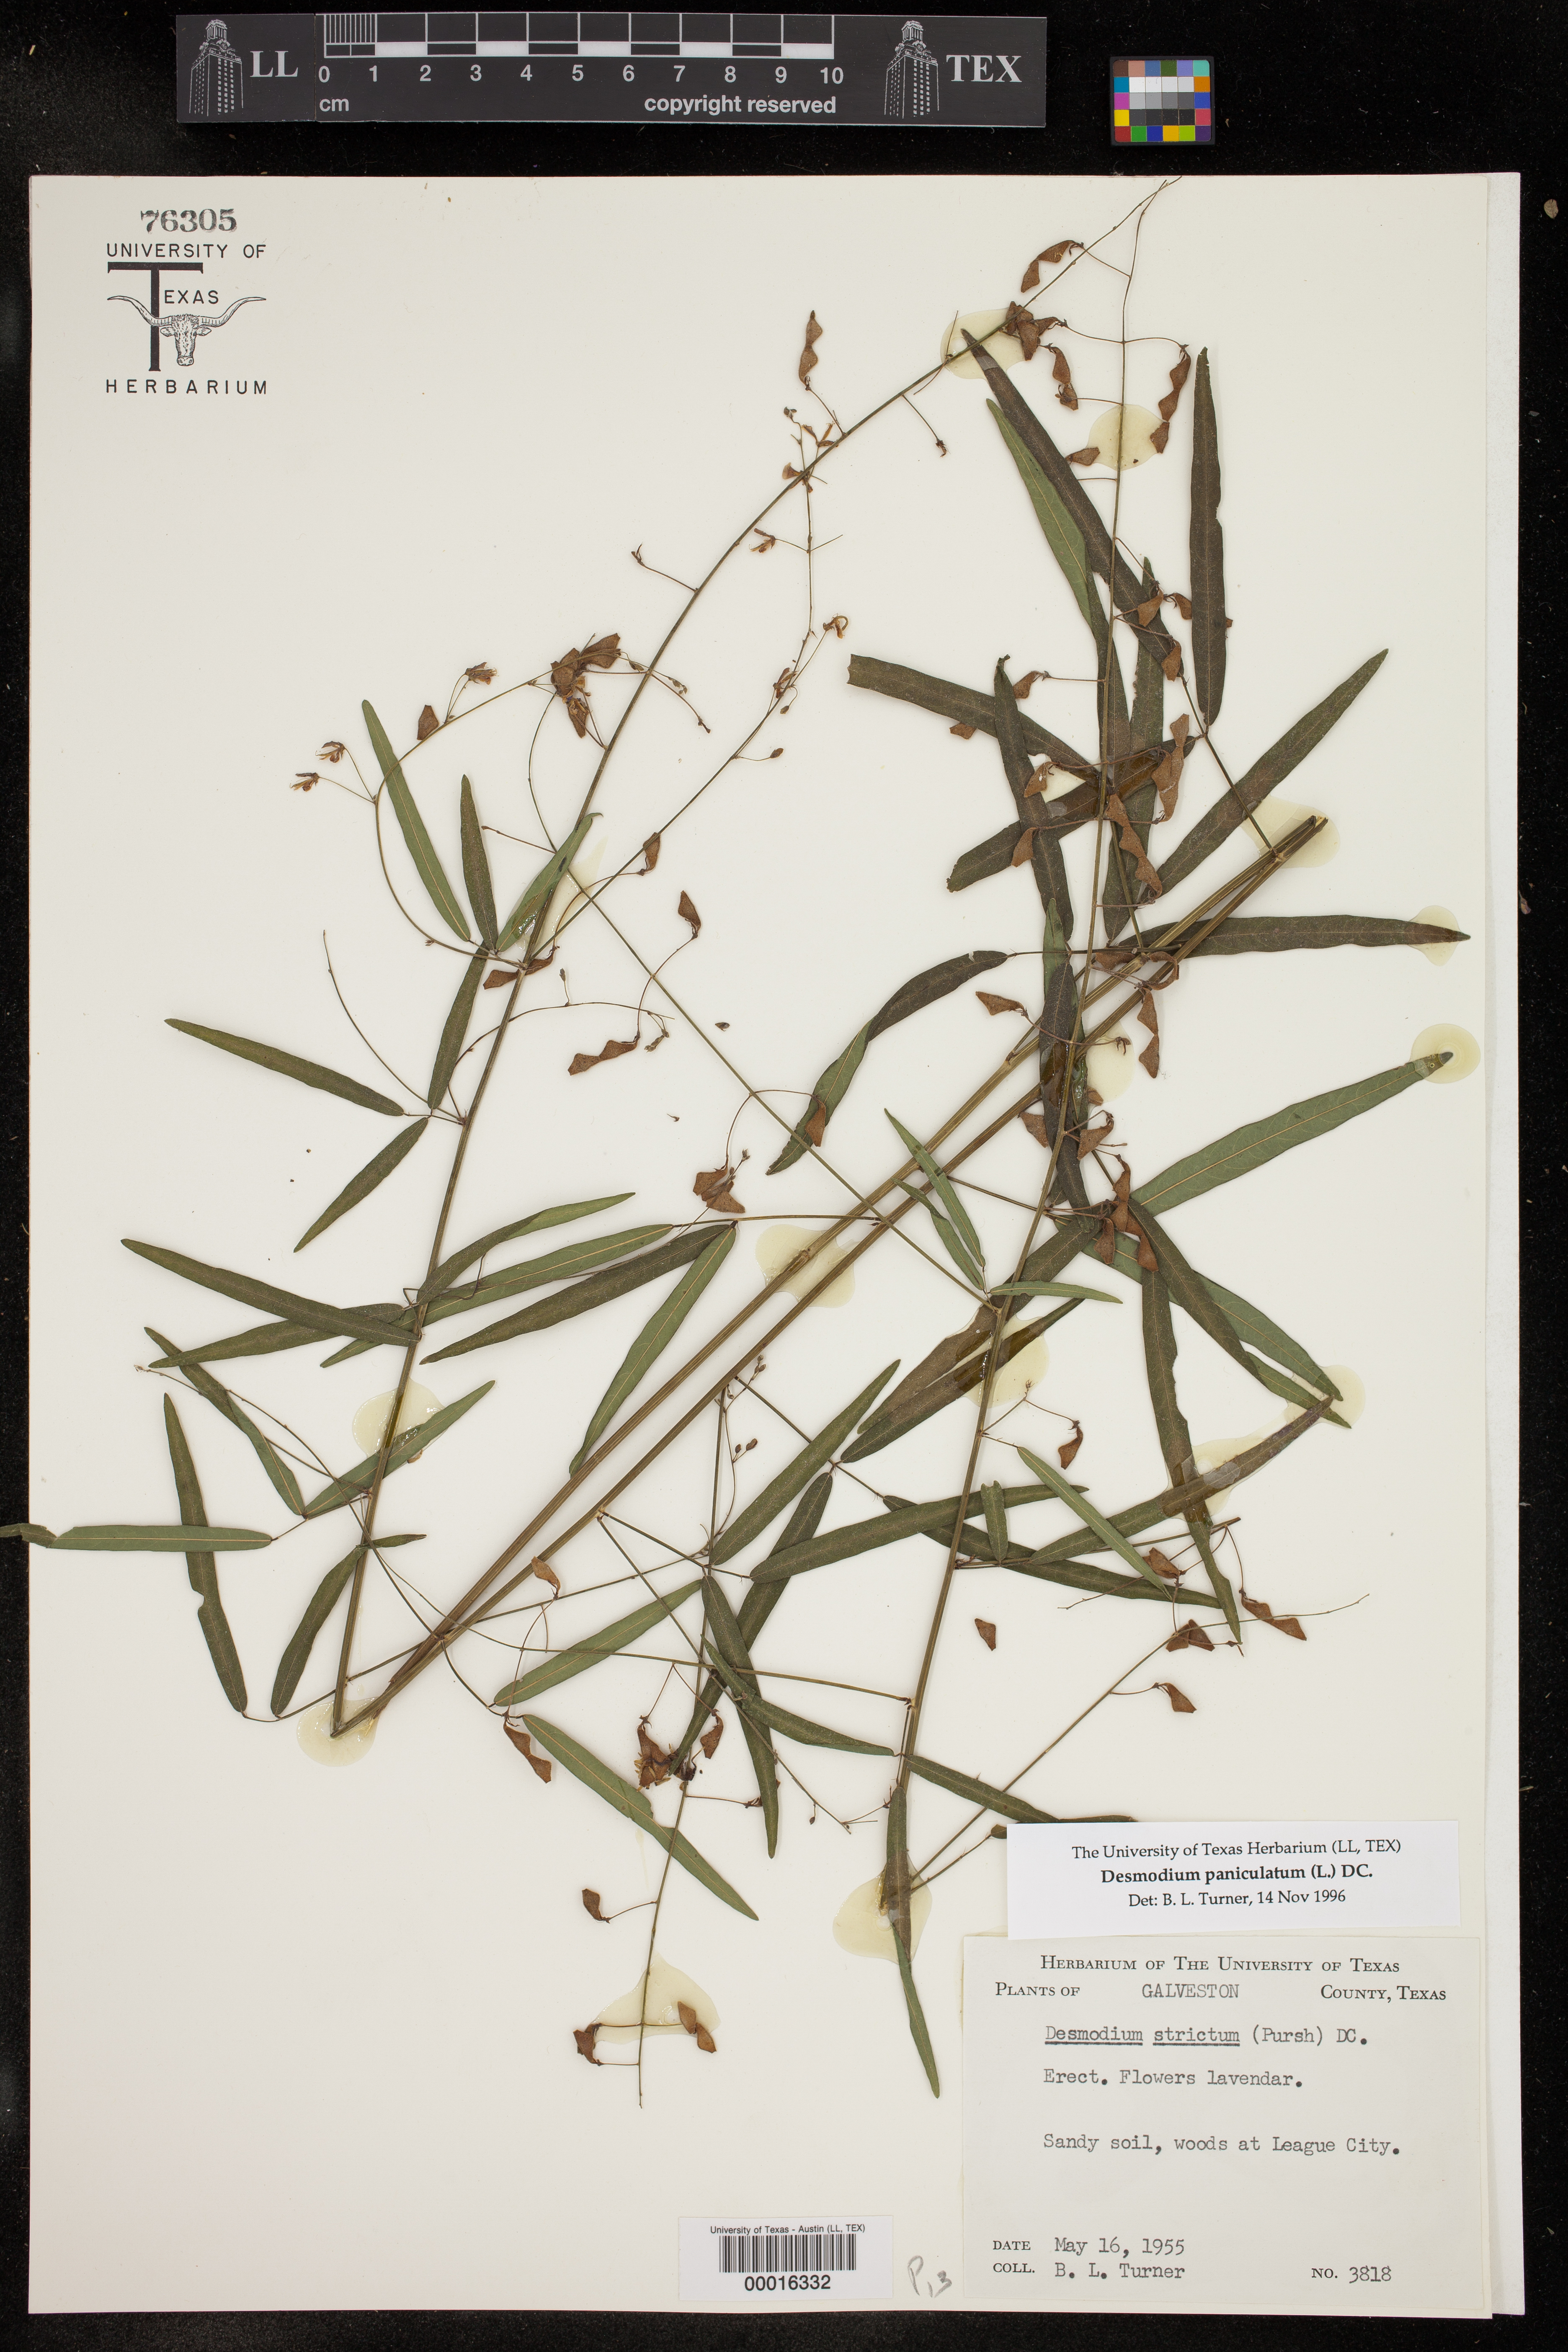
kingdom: Plantae
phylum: Tracheophyta
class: Magnoliopsida
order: Fabales
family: Fabaceae
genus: Desmodium
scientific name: Desmodium paniculatum
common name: Panicled tick-clover
